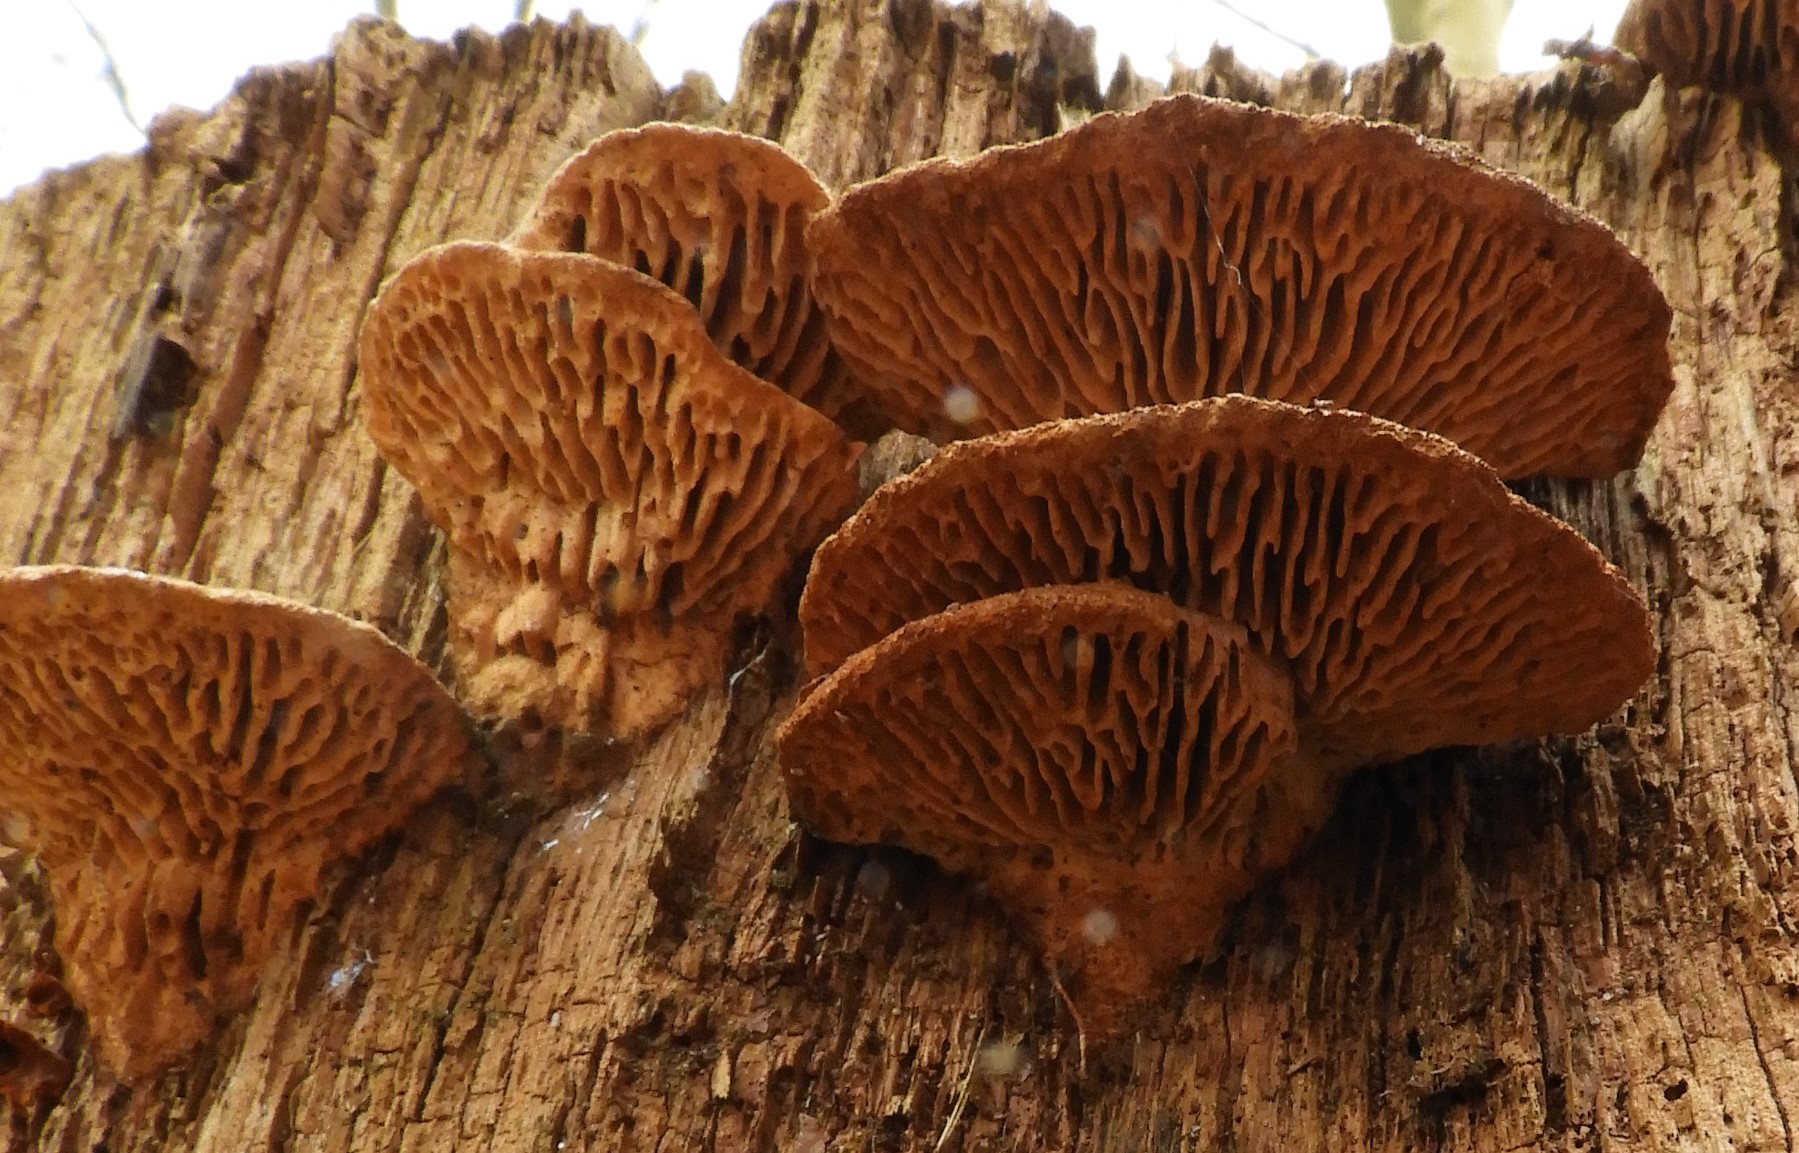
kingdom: Fungi
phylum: Basidiomycota
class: Agaricomycetes
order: Polyporales
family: Fomitopsidaceae
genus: Daedalea
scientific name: Daedalea quercina
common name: ege-labyrintsvamp
